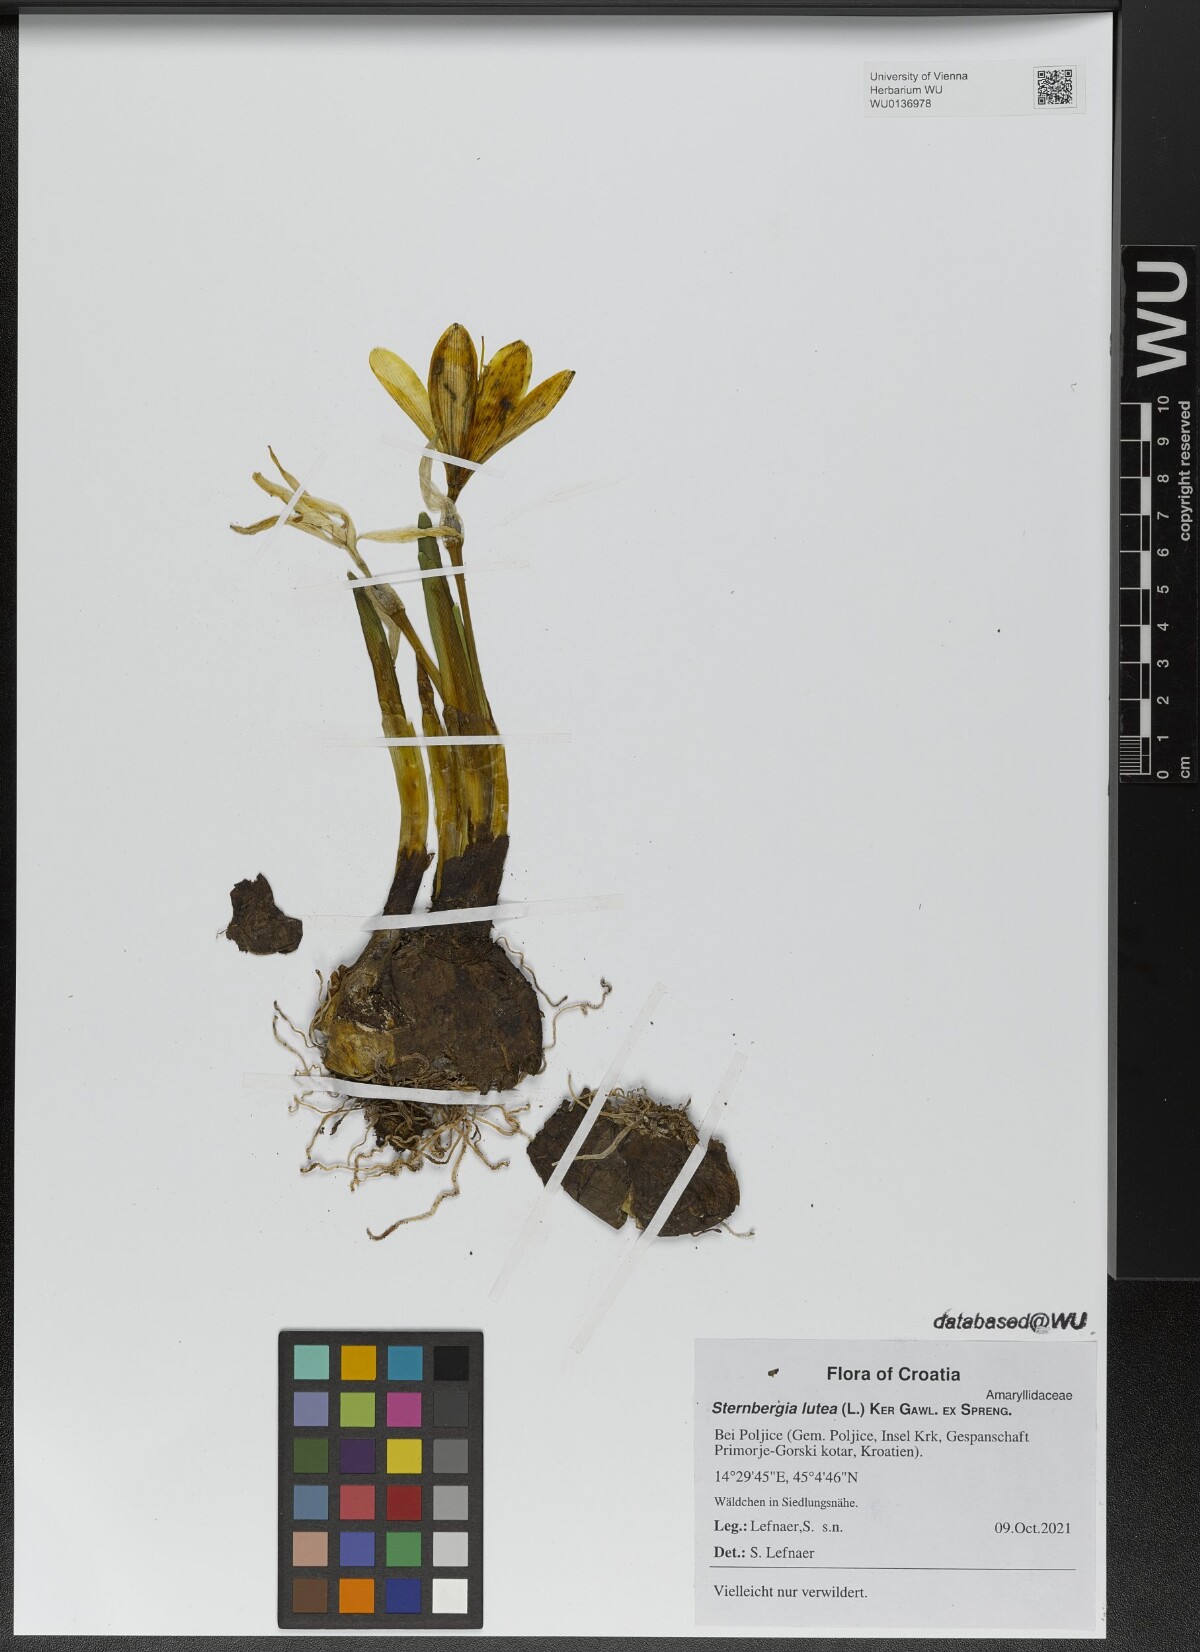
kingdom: Plantae
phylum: Tracheophyta
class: Liliopsida
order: Asparagales
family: Amaryllidaceae
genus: Sternbergia
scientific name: Sternbergia lutea
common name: Winter daffodil
